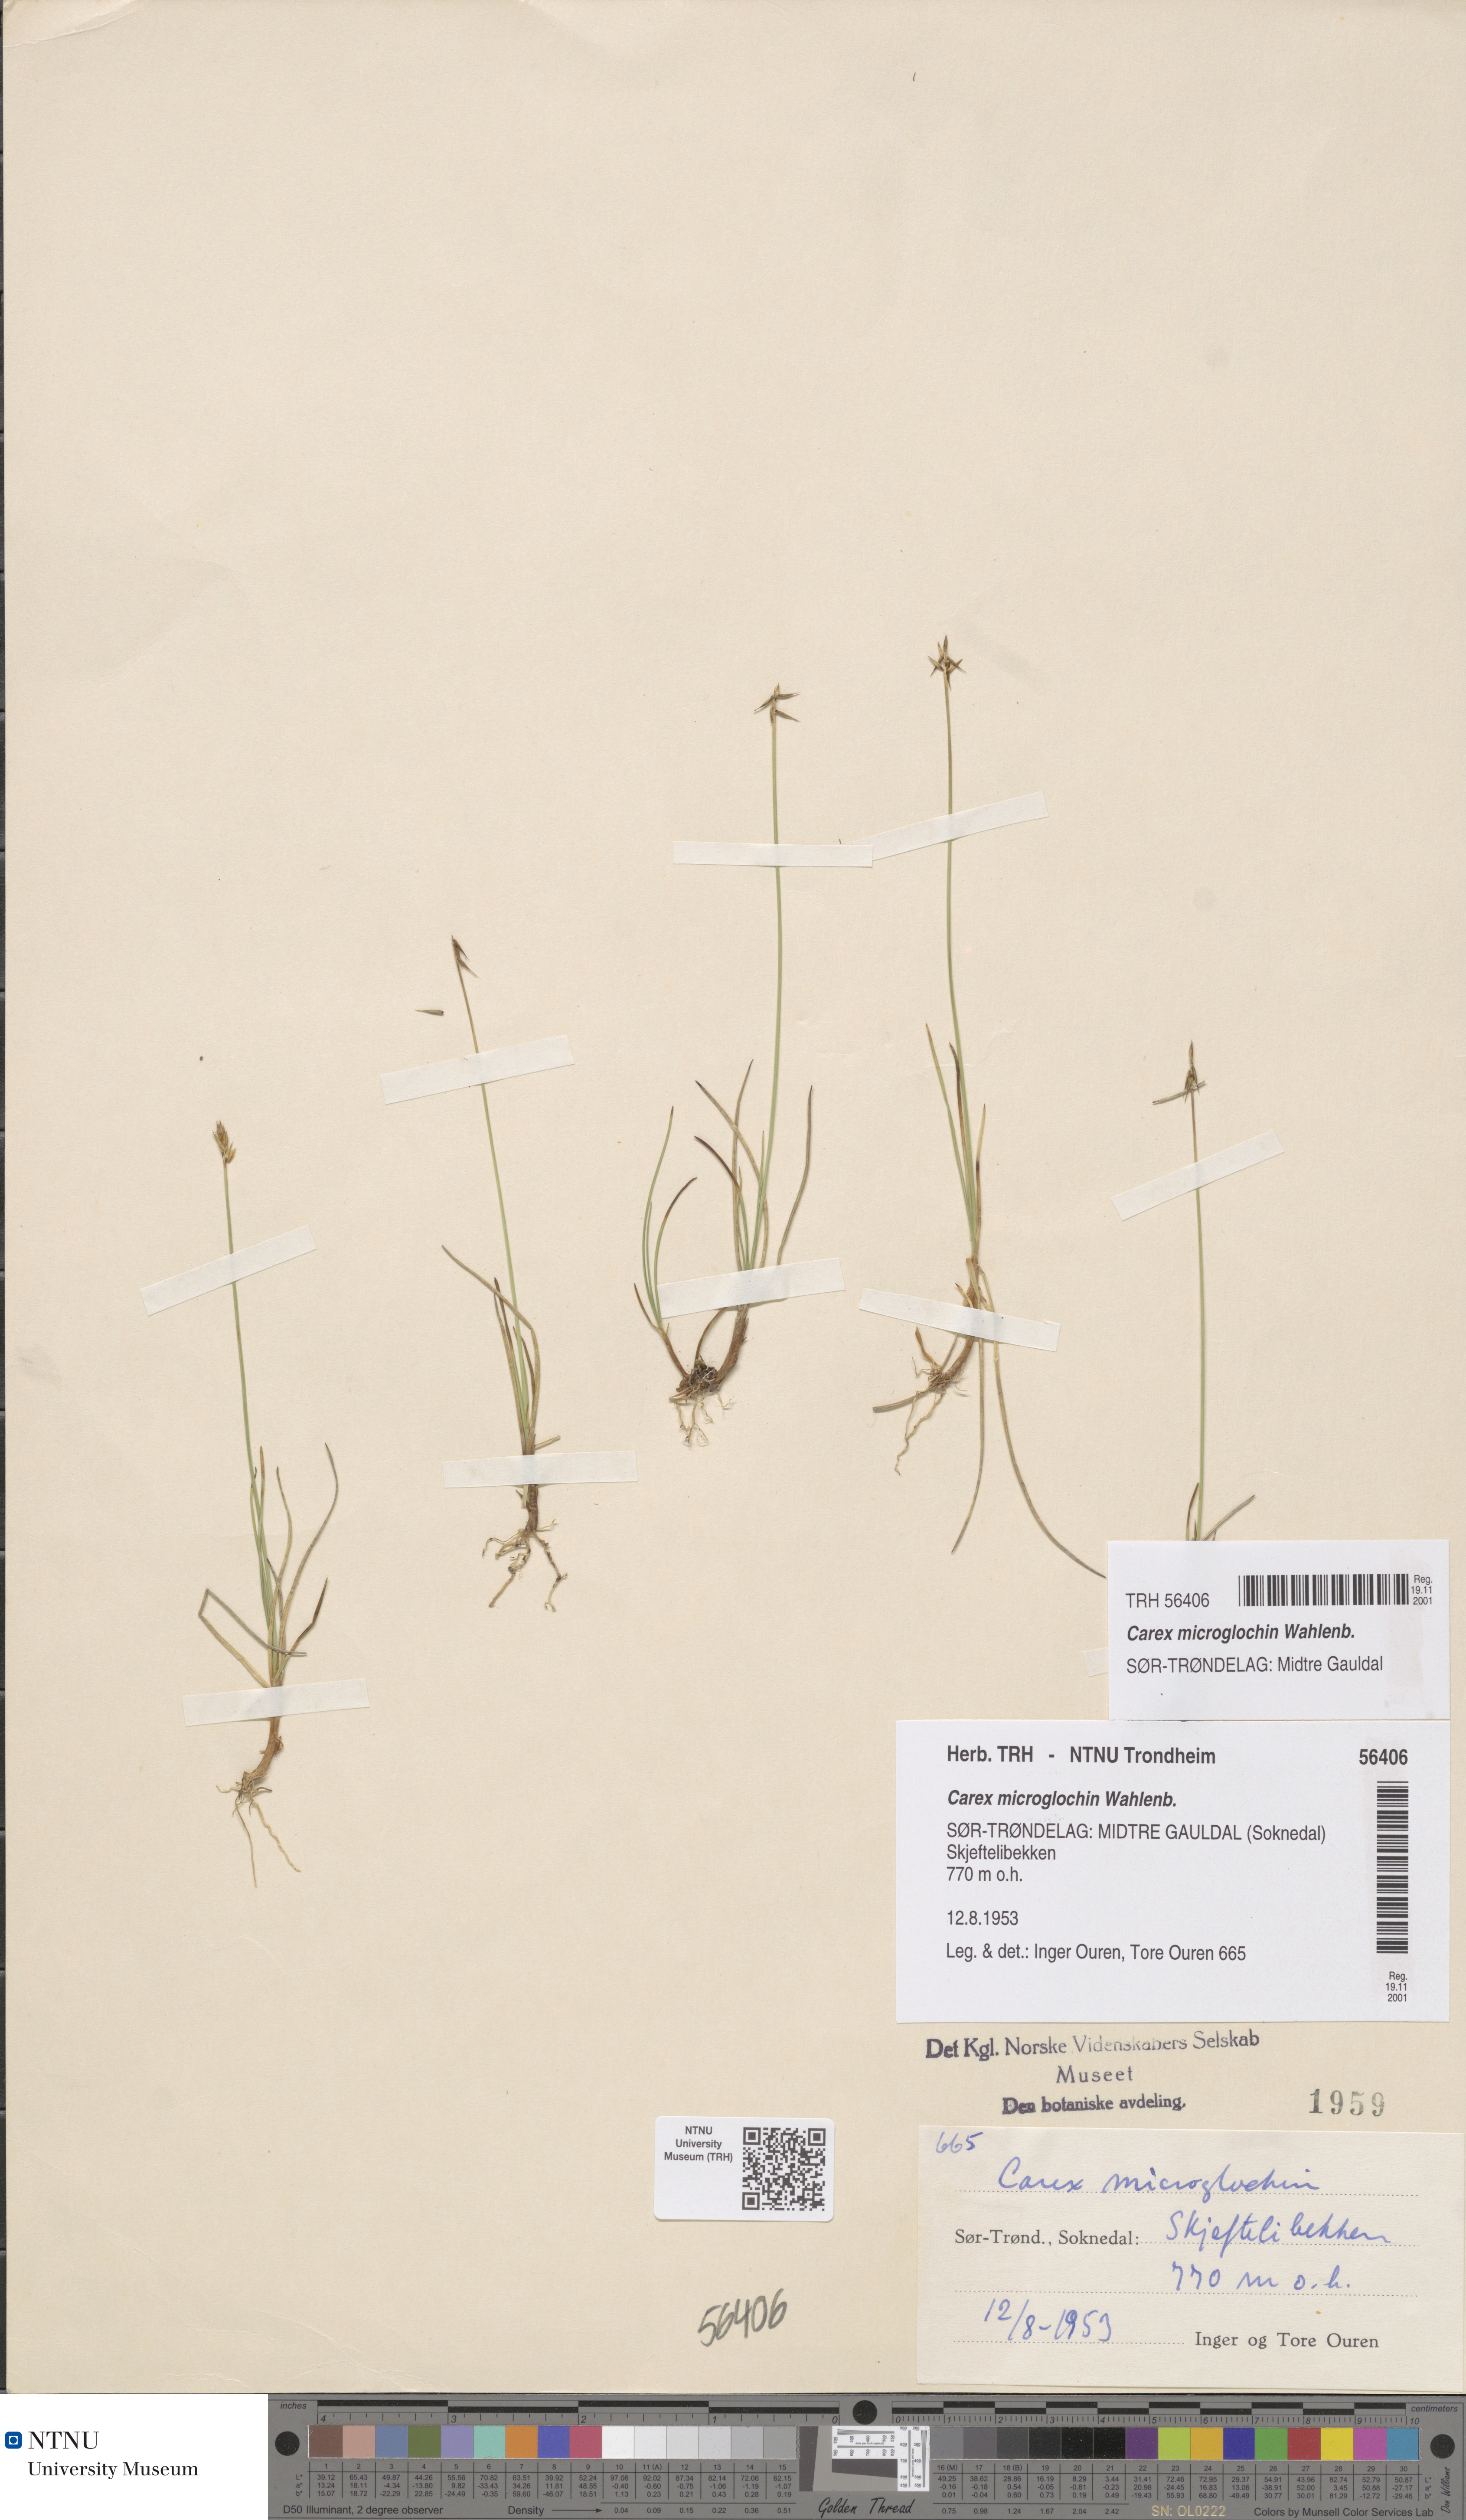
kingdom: Plantae
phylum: Tracheophyta
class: Liliopsida
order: Poales
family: Cyperaceae
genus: Carex
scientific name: Carex microglochin
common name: Bristle sedge
